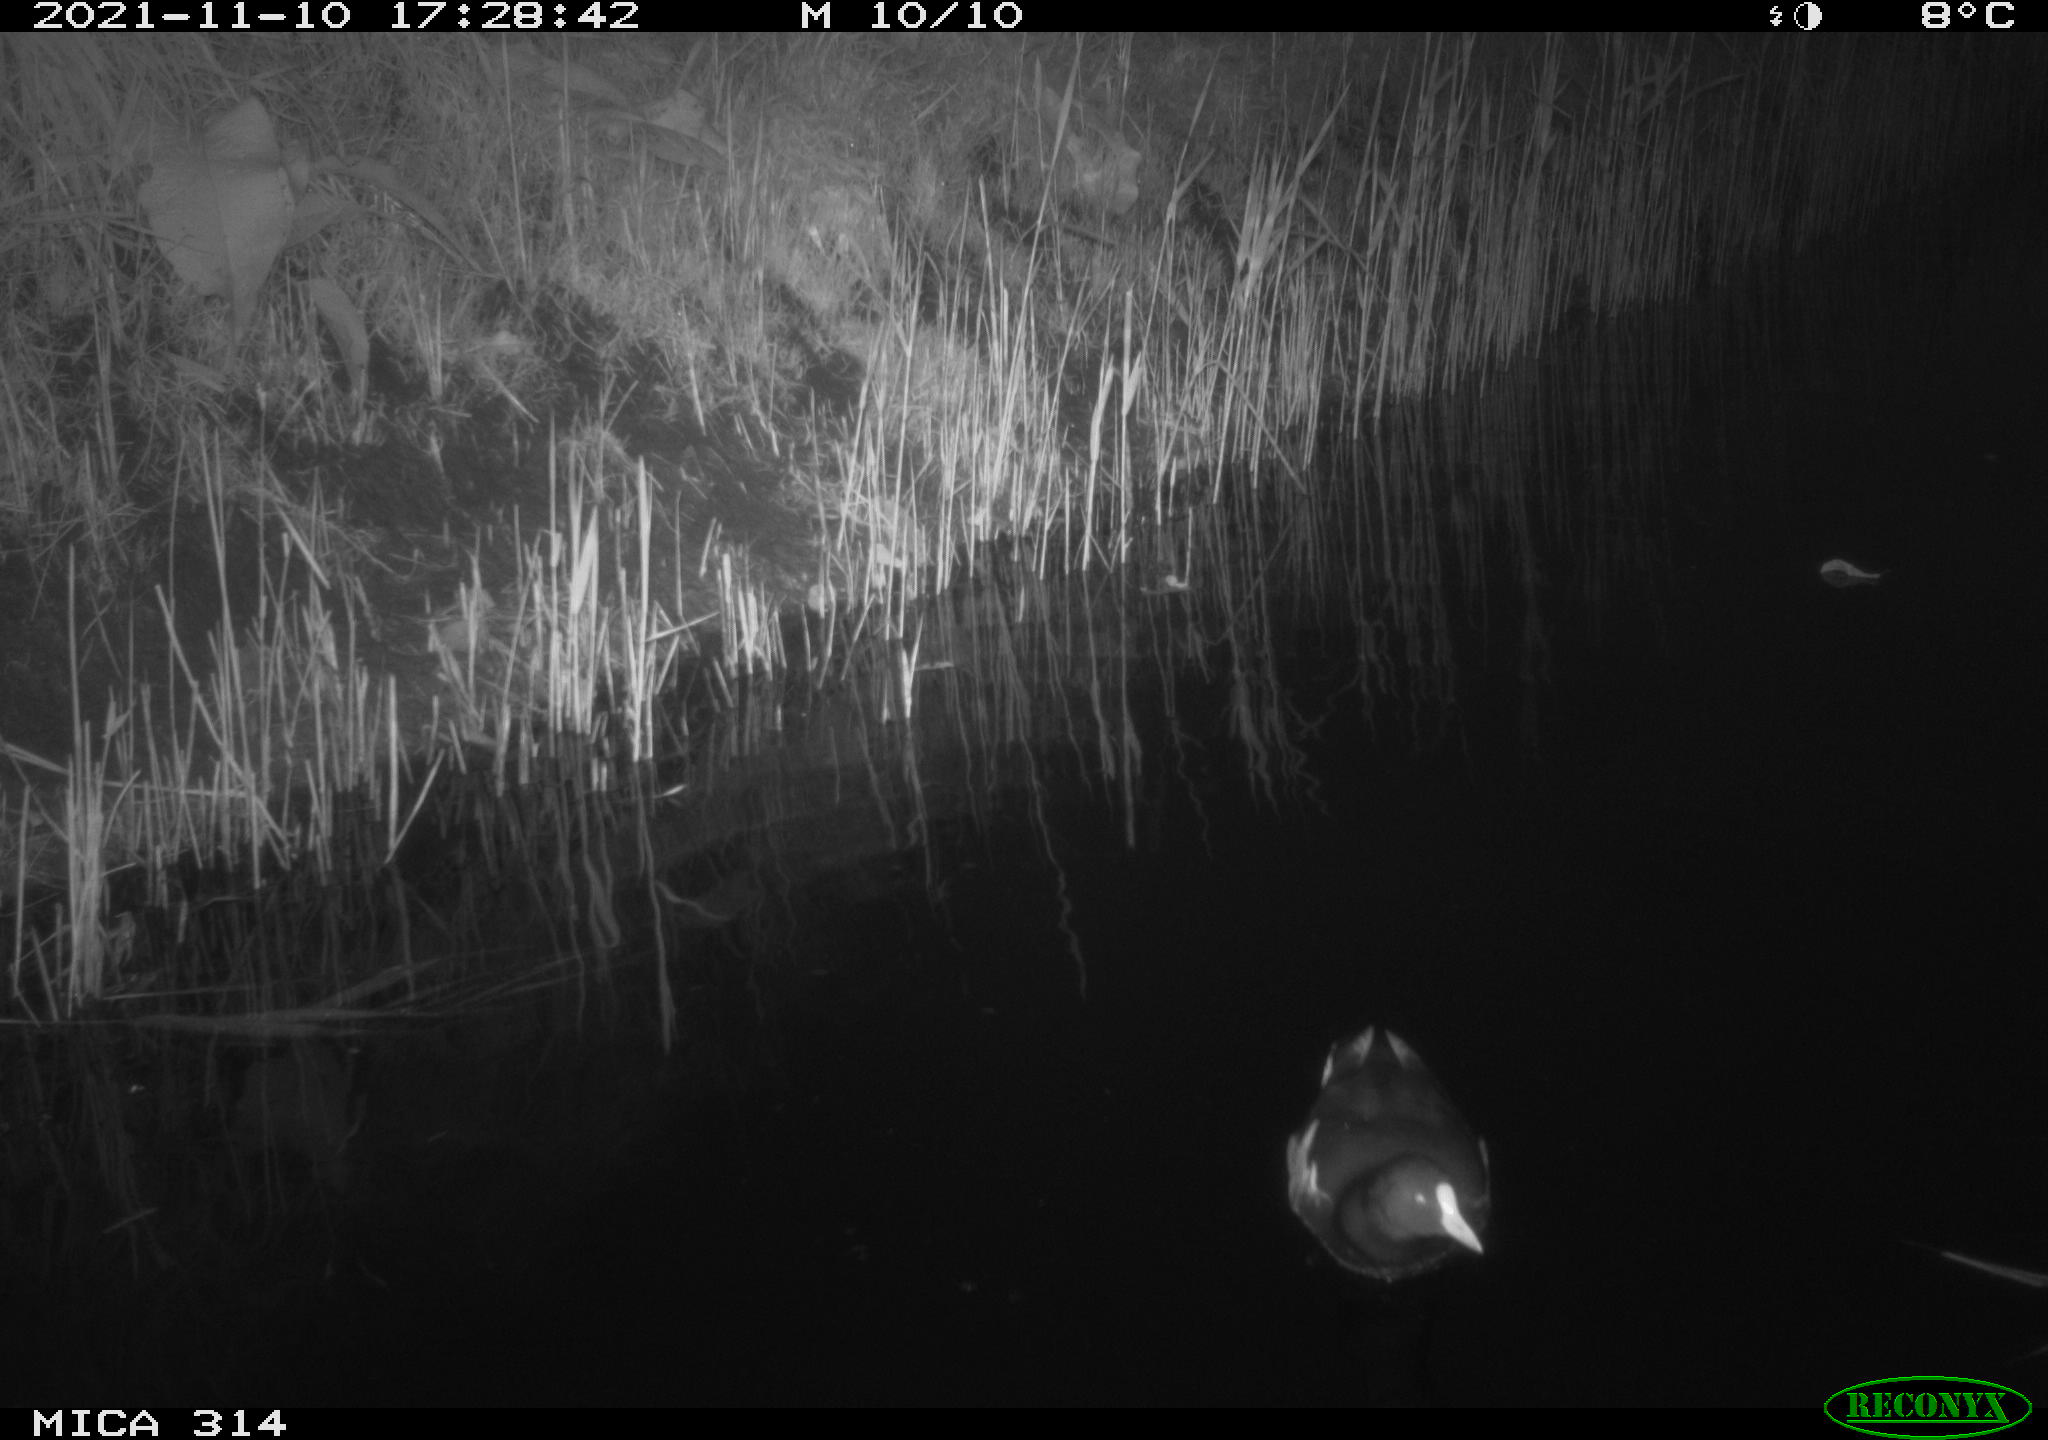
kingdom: Animalia
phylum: Chordata
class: Aves
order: Gruiformes
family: Rallidae
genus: Gallinula
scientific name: Gallinula chloropus
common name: Common moorhen
